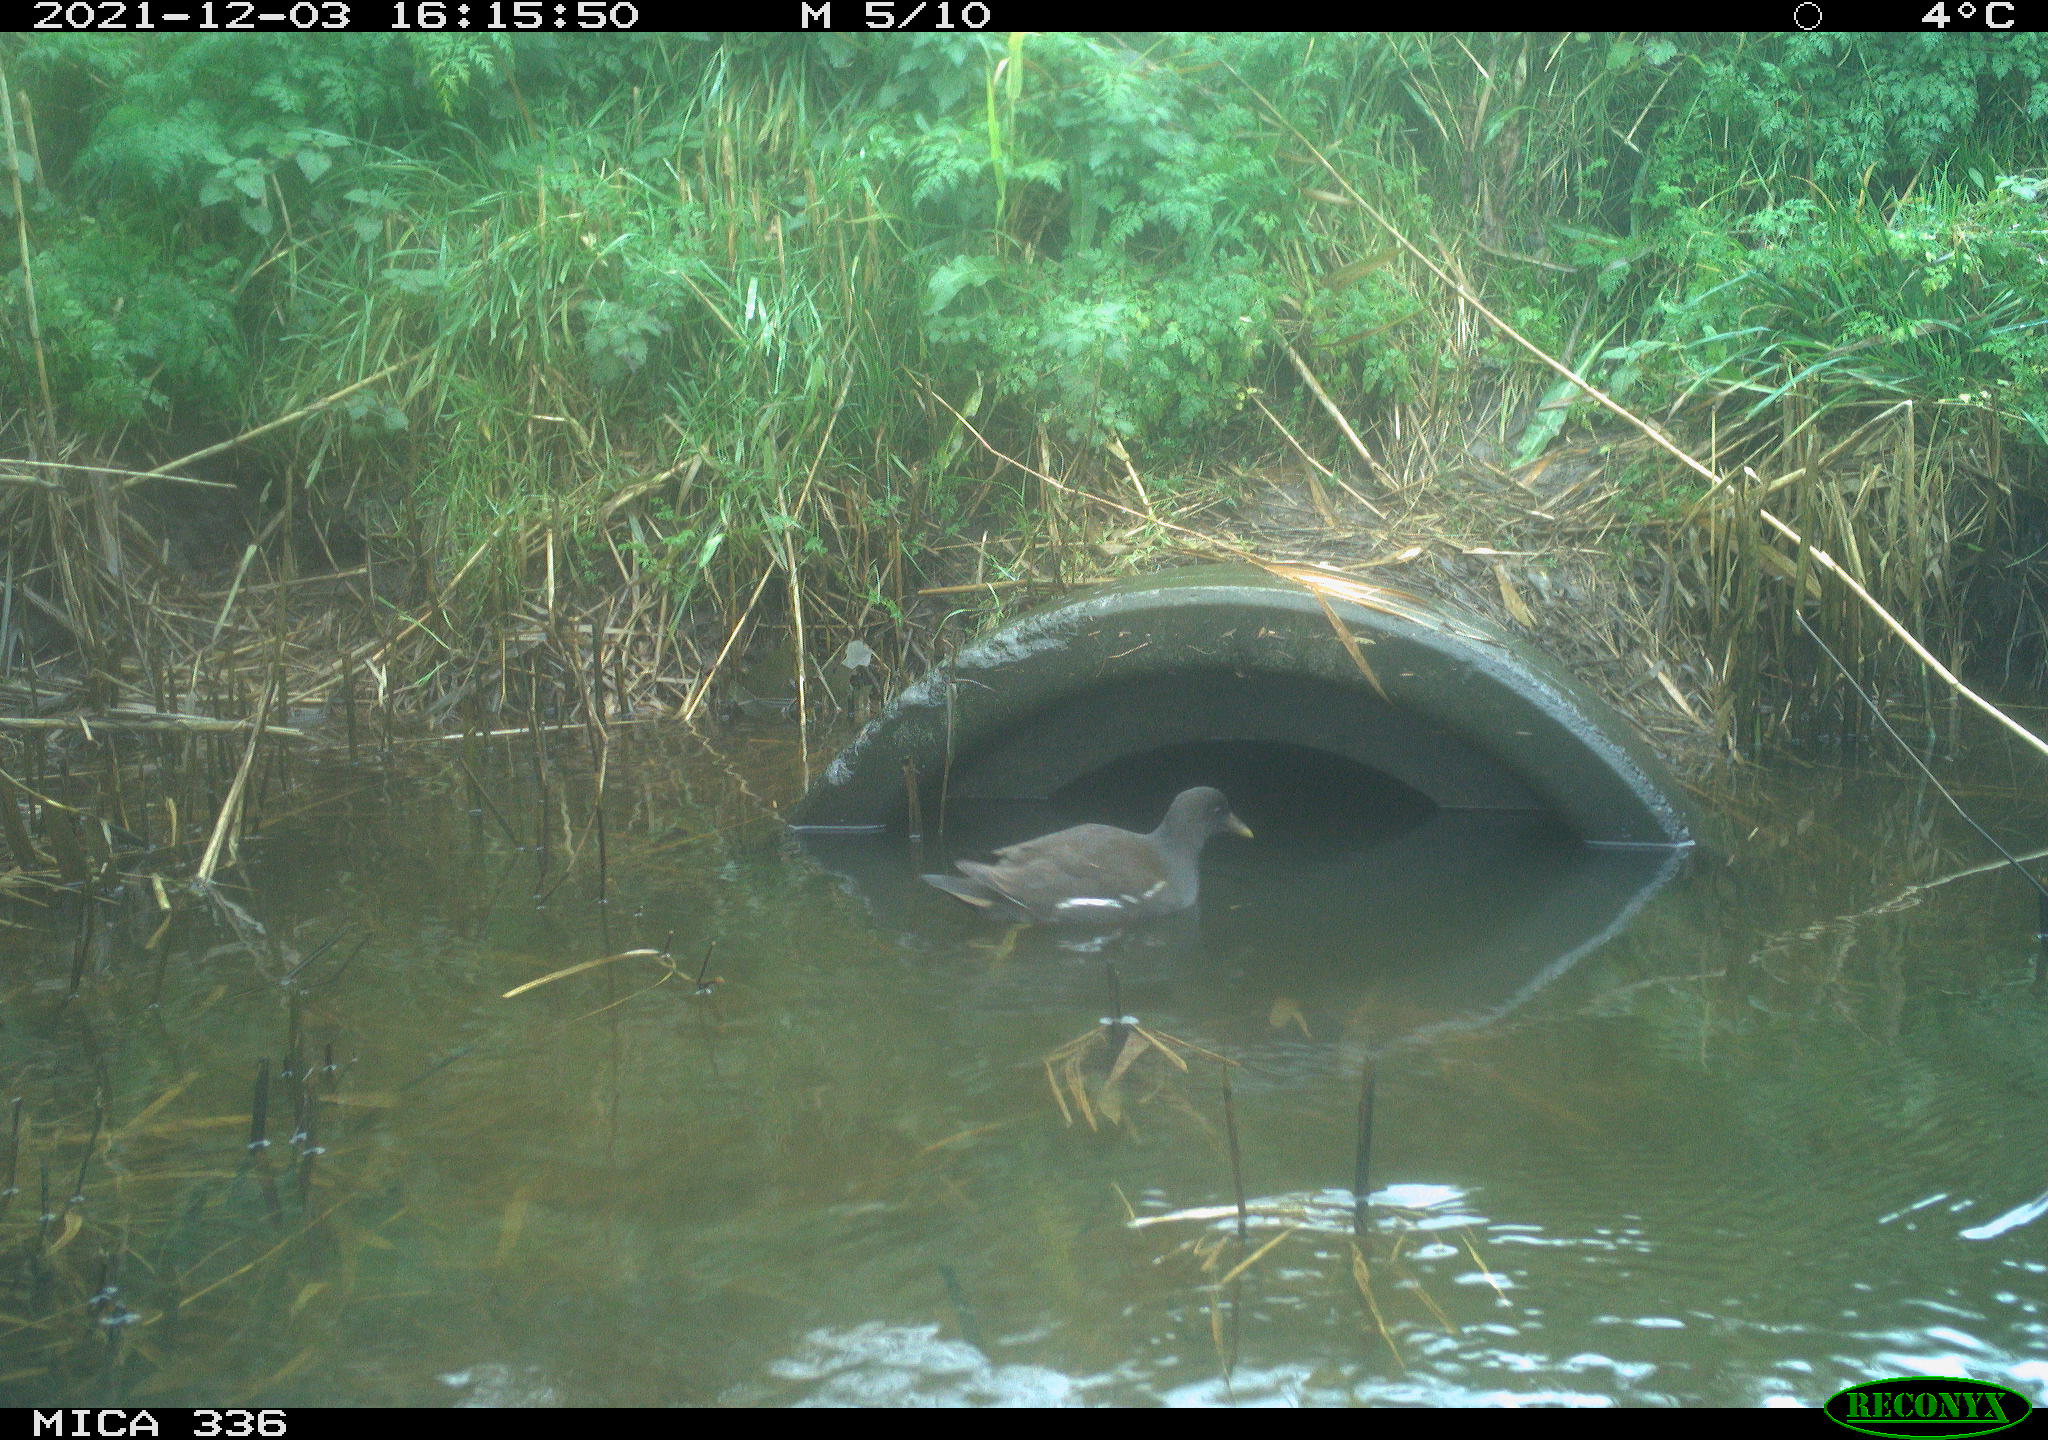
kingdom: Animalia
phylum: Chordata
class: Aves
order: Gruiformes
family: Rallidae
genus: Gallinula
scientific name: Gallinula chloropus
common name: Common moorhen
